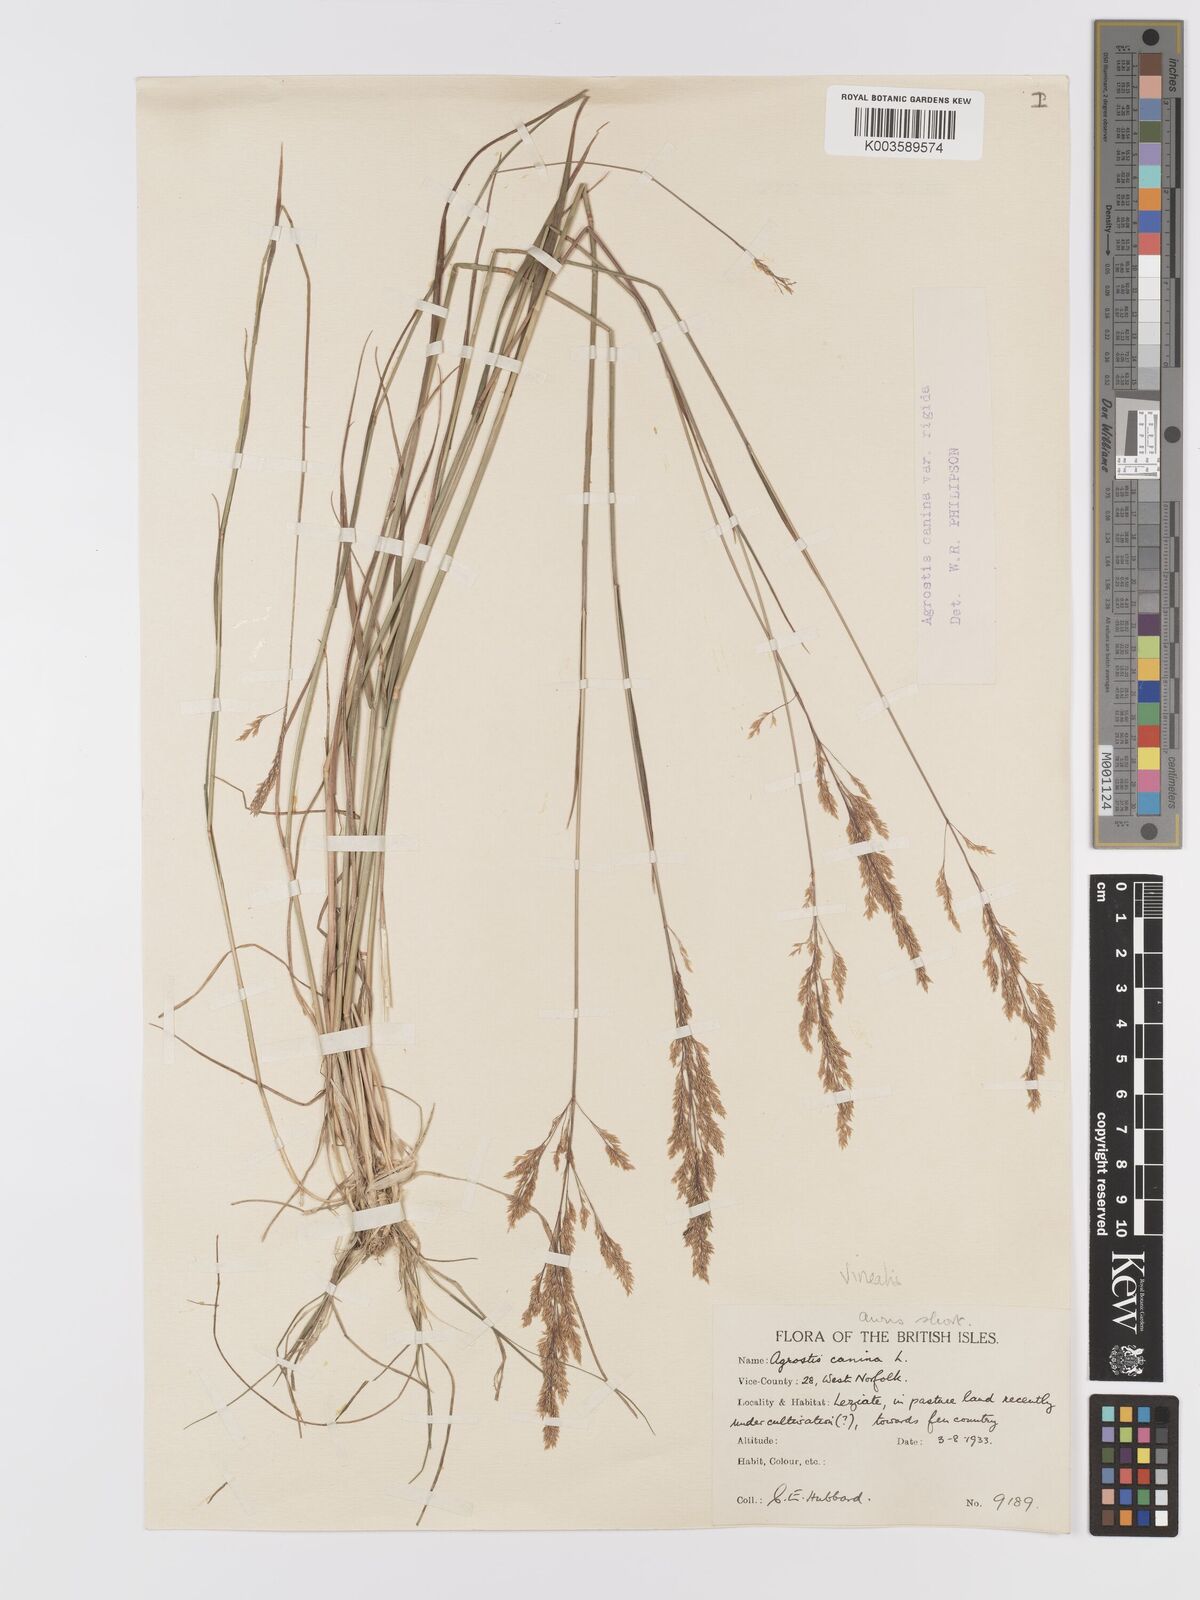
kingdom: Plantae
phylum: Tracheophyta
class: Liliopsida
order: Poales
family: Poaceae
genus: Agrostis
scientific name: Agrostis
